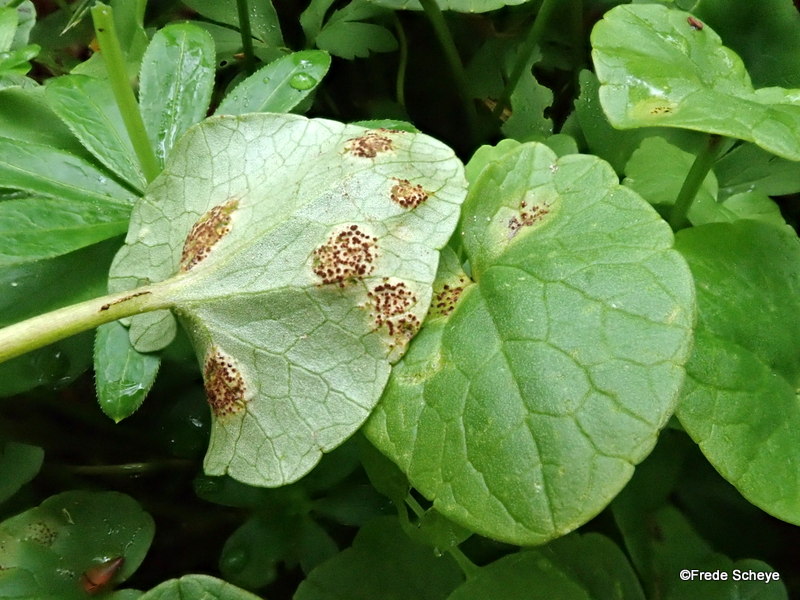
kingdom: Fungi
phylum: Basidiomycota
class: Pucciniomycetes
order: Pucciniales
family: Pucciniaceae
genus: Uromyces
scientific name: Uromyces ficariae
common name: vorterod-encellerust
